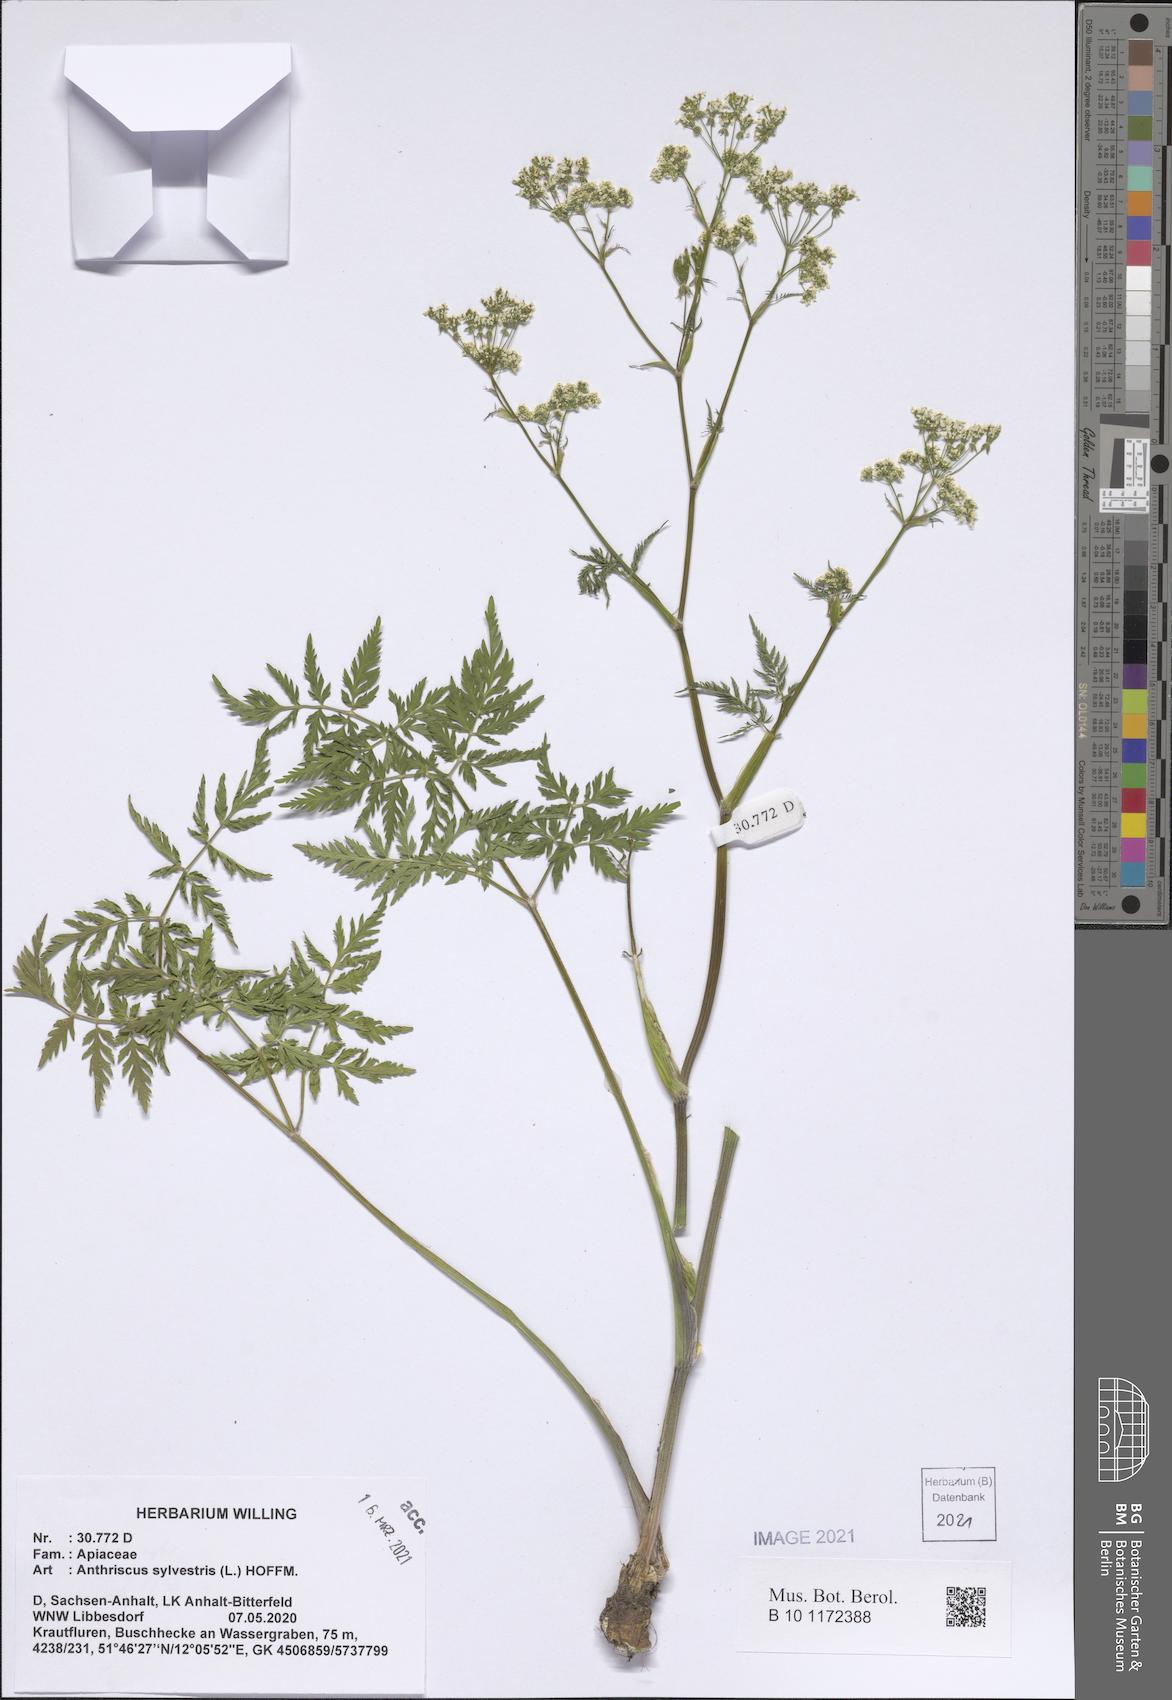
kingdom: Plantae
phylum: Tracheophyta
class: Magnoliopsida
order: Apiales
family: Apiaceae
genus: Anthriscus
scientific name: Anthriscus sylvestris
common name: Cow parsley
